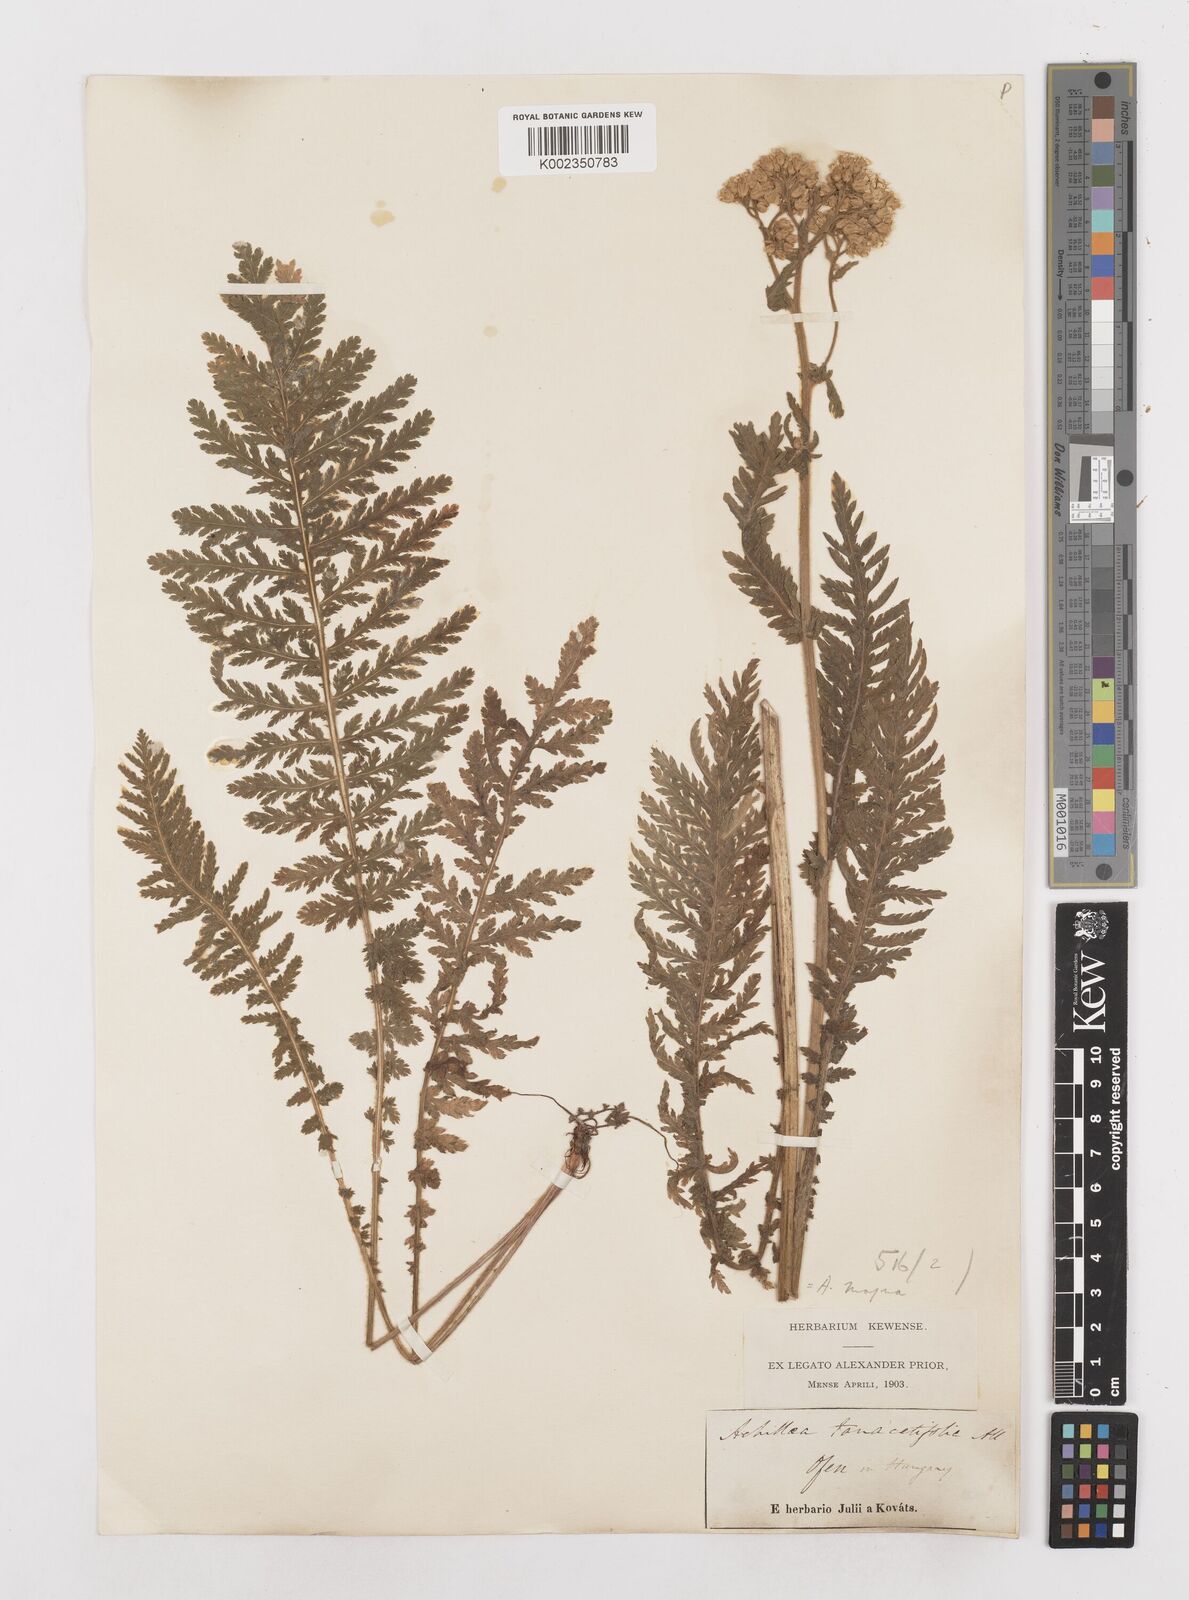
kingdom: Plantae
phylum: Tracheophyta
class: Magnoliopsida
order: Asterales
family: Asteraceae
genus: Achillea
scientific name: Achillea distans
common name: Tall yarrow
